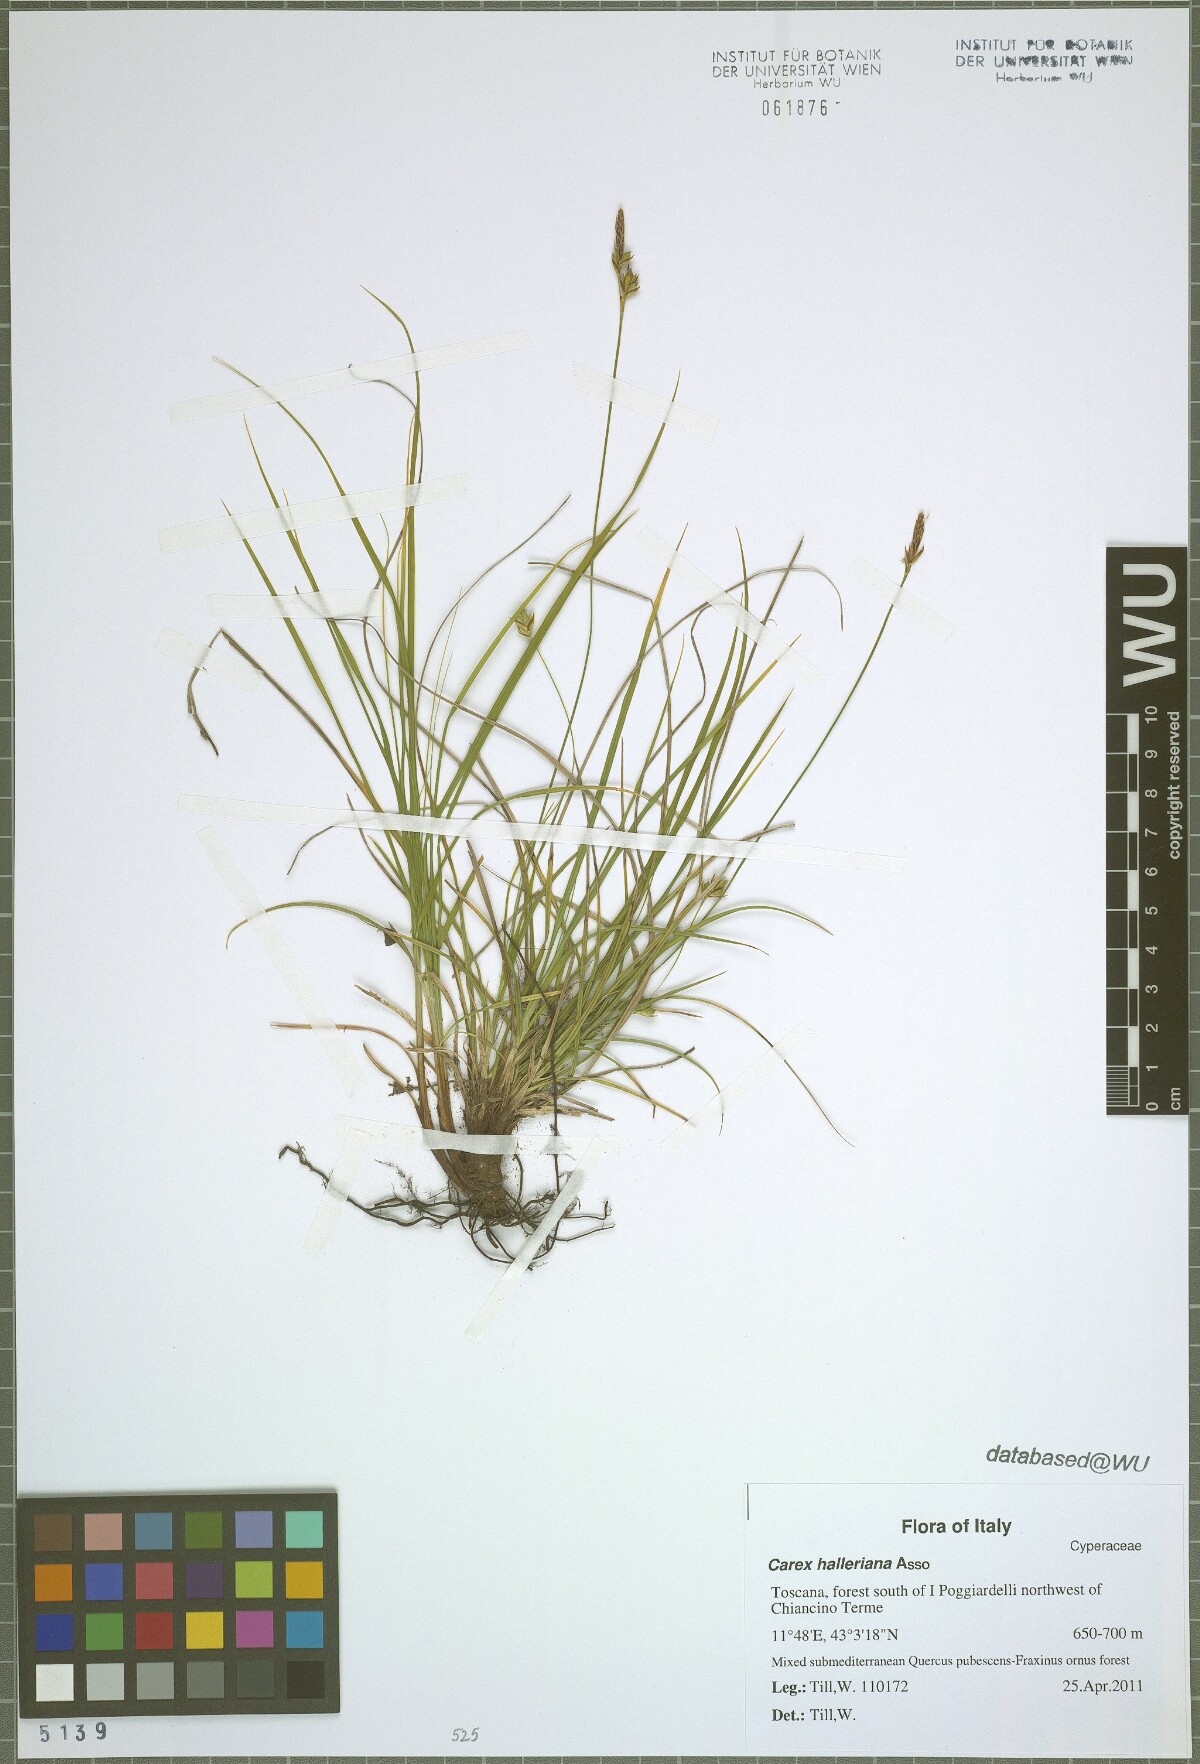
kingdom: Plantae
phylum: Tracheophyta
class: Liliopsida
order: Poales
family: Cyperaceae
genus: Carex
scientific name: Carex halleriana
